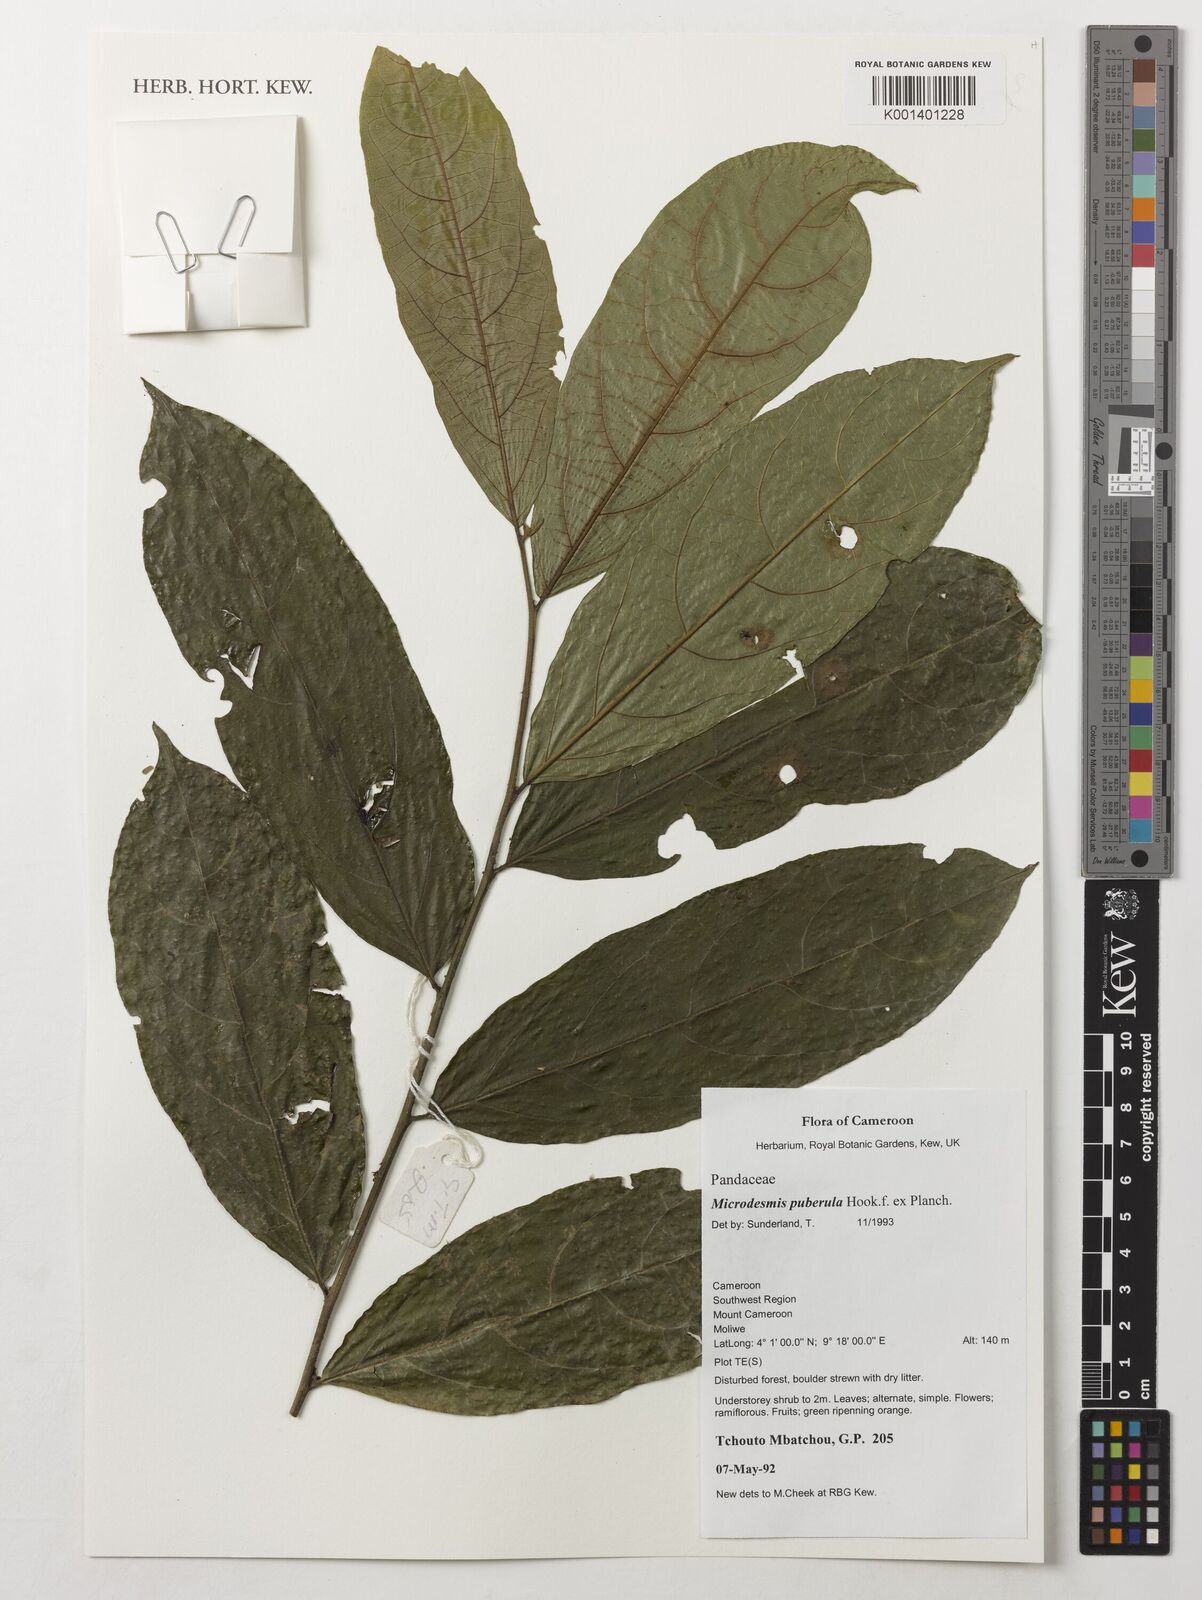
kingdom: Plantae
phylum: Tracheophyta
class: Magnoliopsida
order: Malpighiales
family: Pandaceae
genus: Microdesmis
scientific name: Microdesmis puberula
